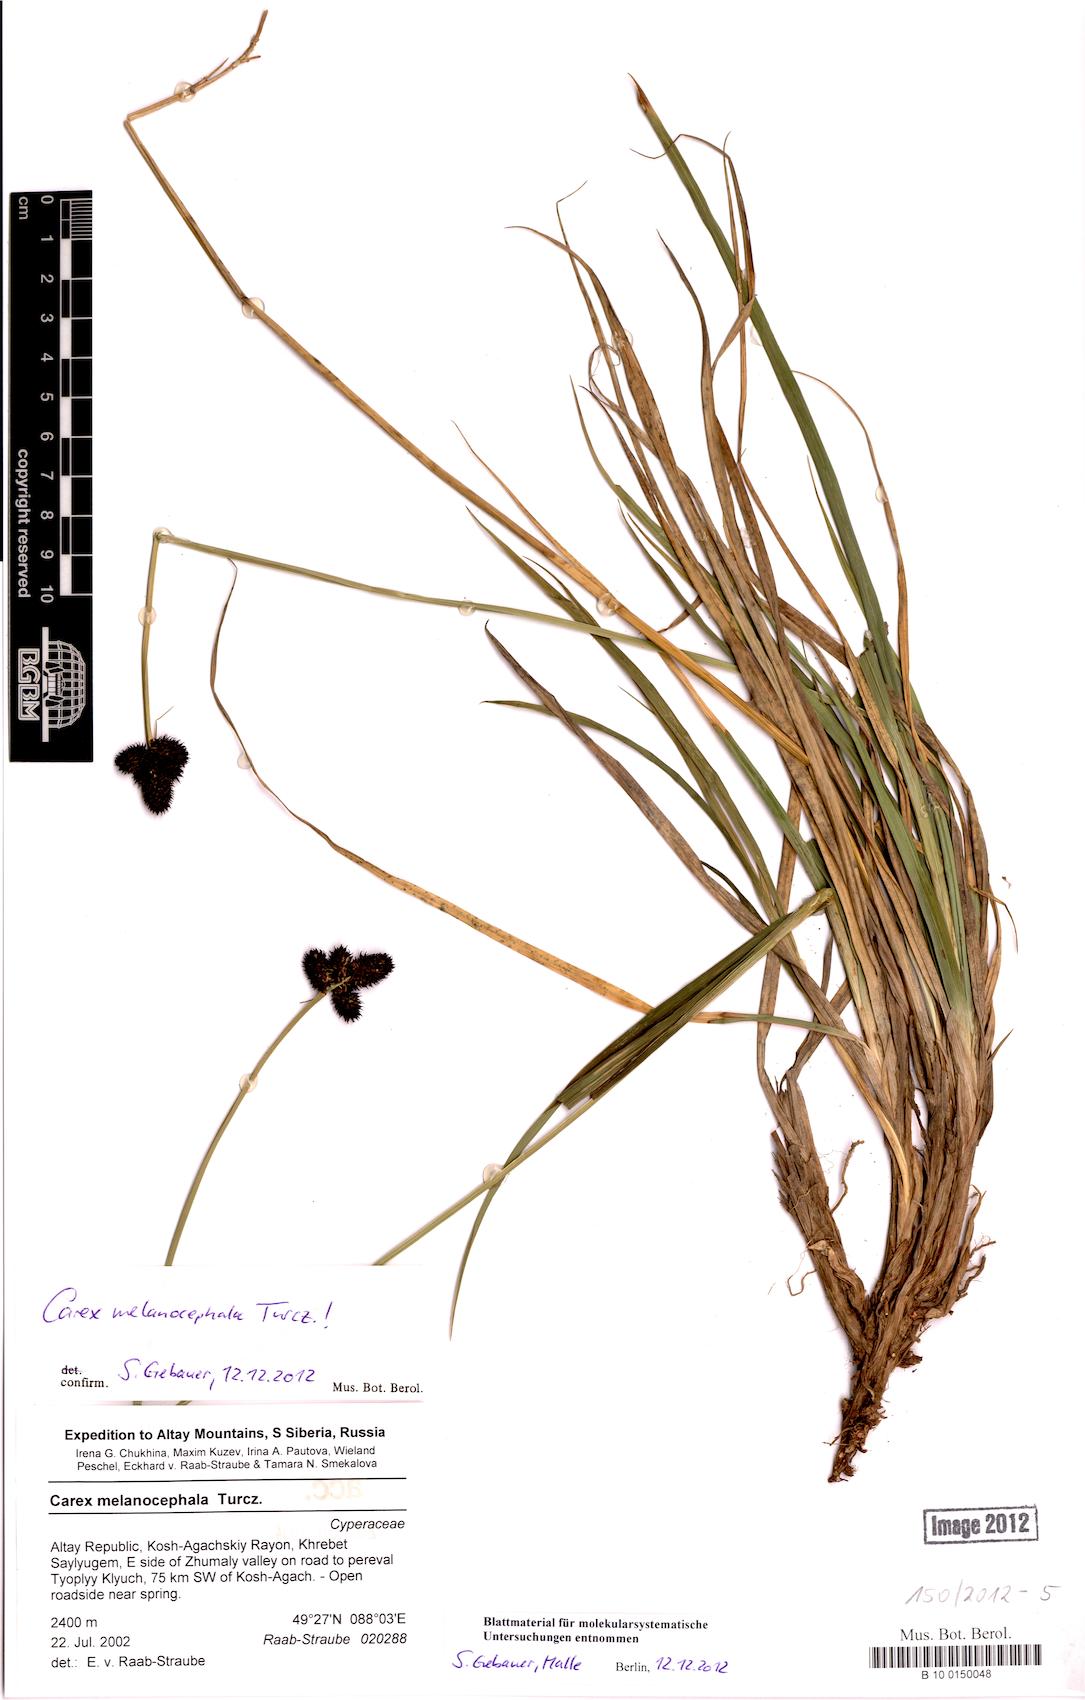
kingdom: Plantae
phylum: Tracheophyta
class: Liliopsida
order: Poales
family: Cyperaceae
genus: Carex
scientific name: Carex melanocephala
